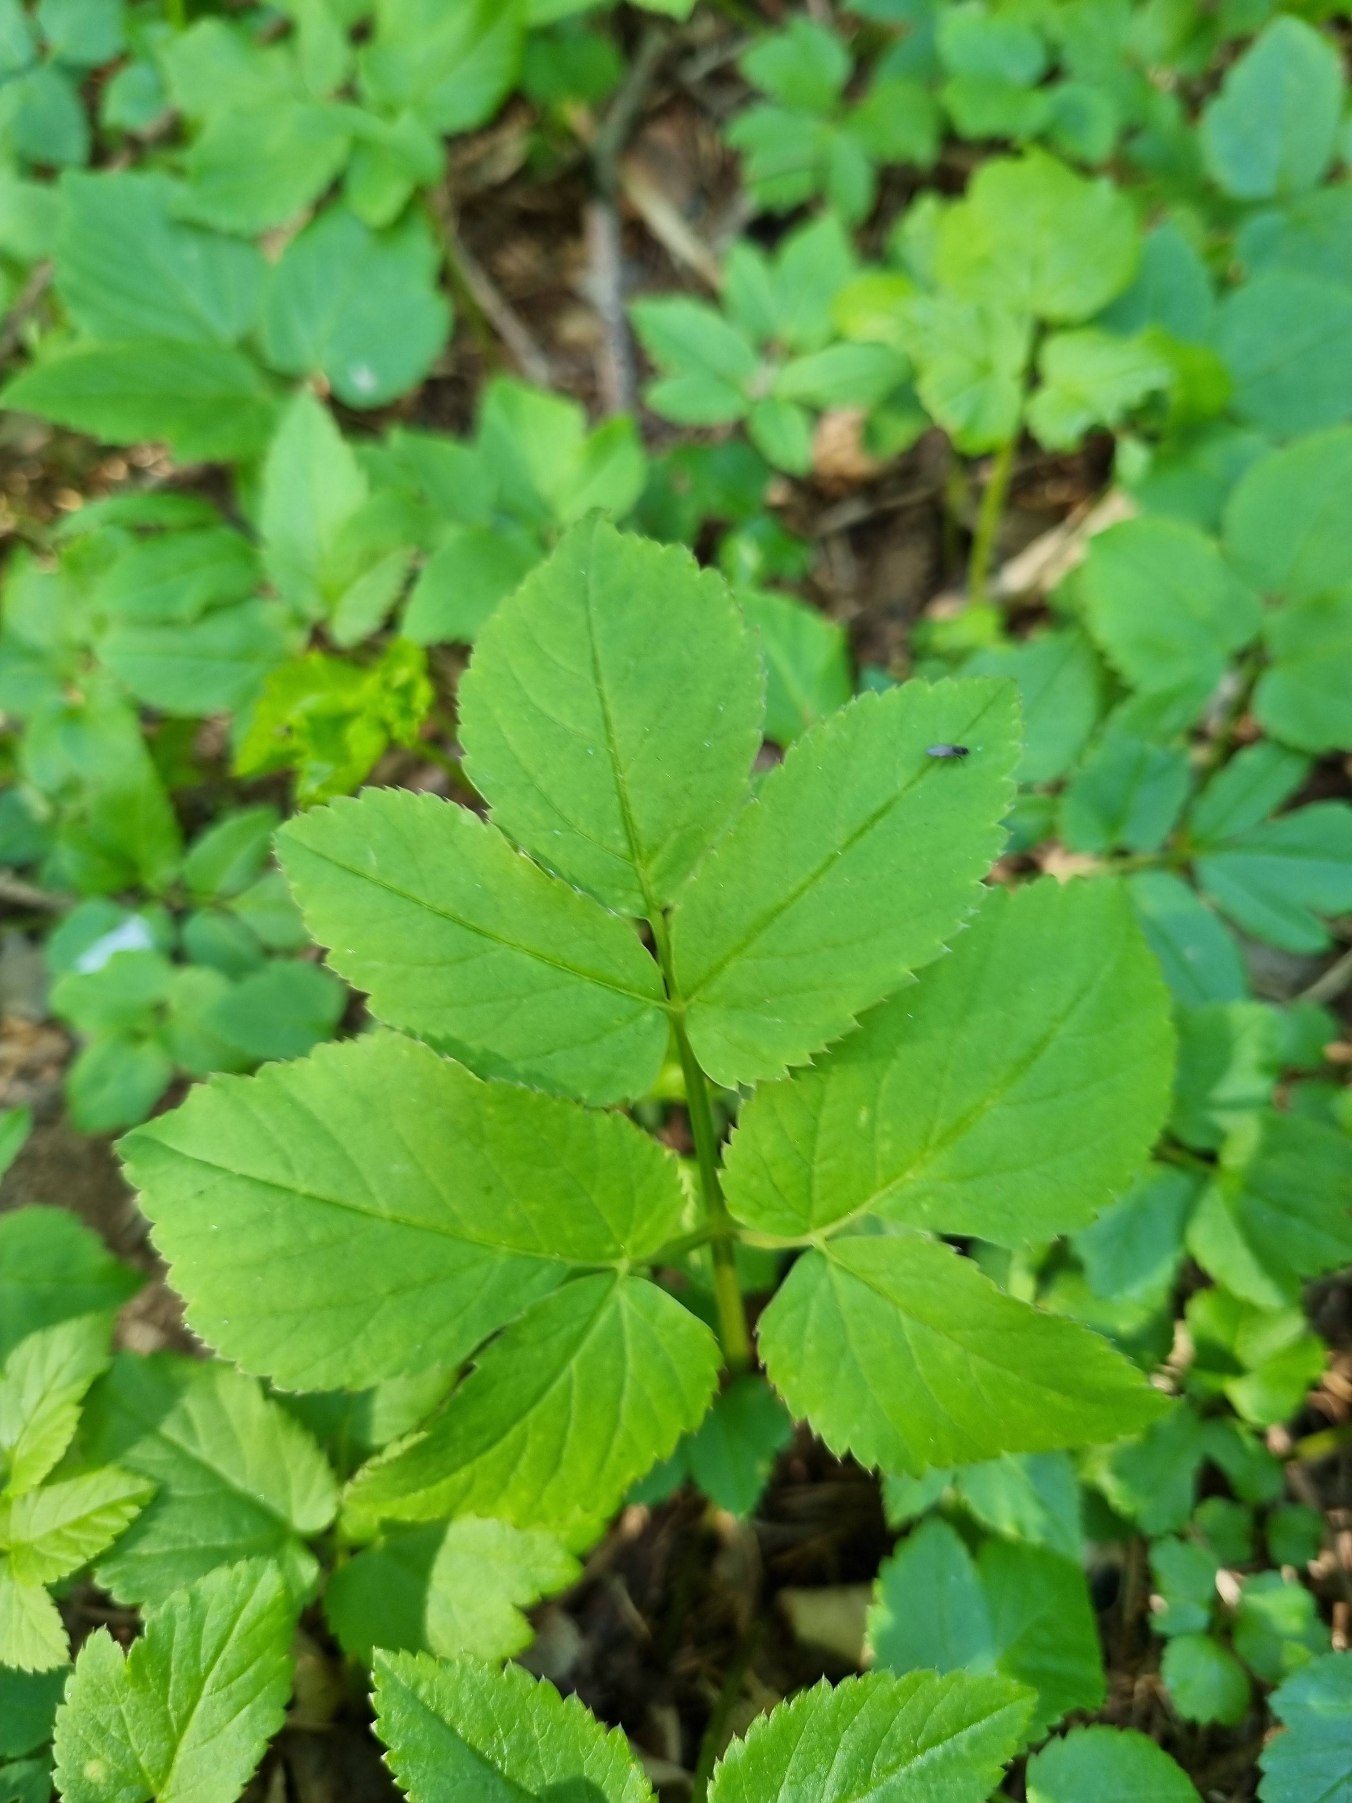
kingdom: Plantae
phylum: Tracheophyta
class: Magnoliopsida
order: Apiales
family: Apiaceae
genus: Aegopodium
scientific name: Aegopodium podagraria
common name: Skvalderkål
